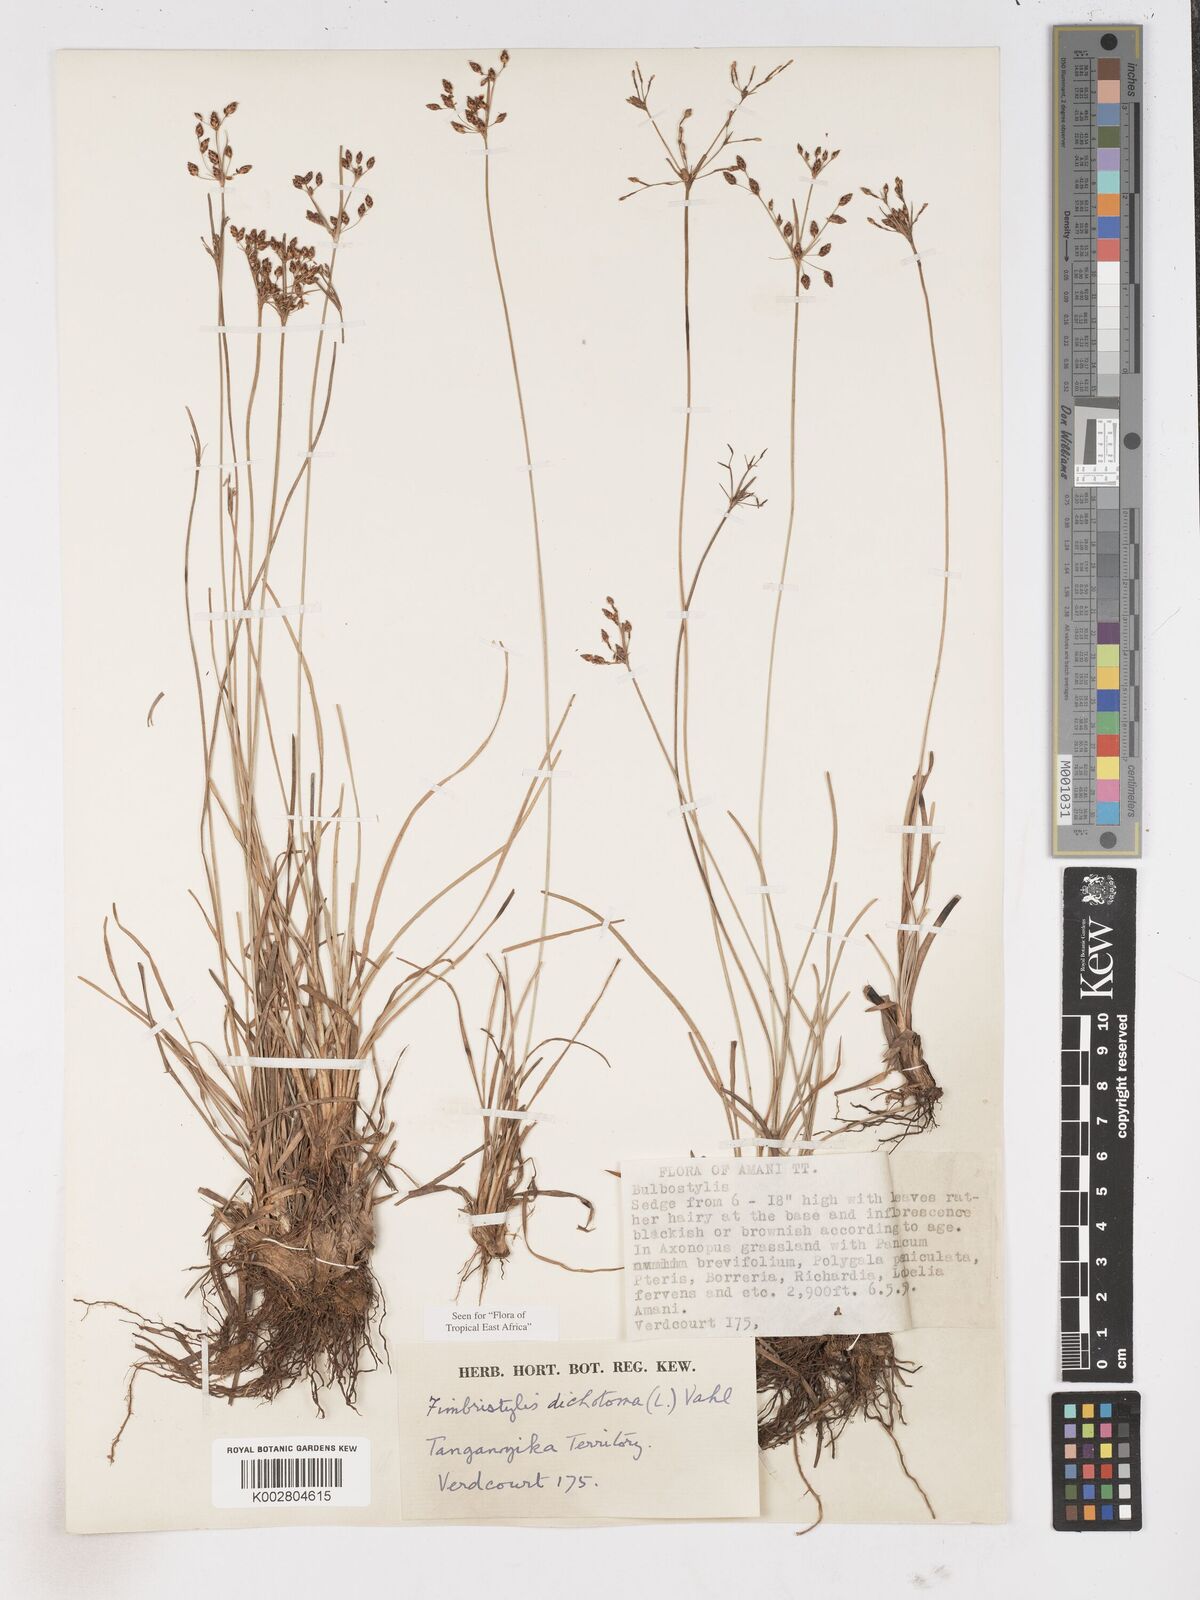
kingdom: Plantae
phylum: Tracheophyta
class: Liliopsida
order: Poales
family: Cyperaceae
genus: Fimbristylis
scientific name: Fimbristylis dichotoma
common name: Forked fimbry
